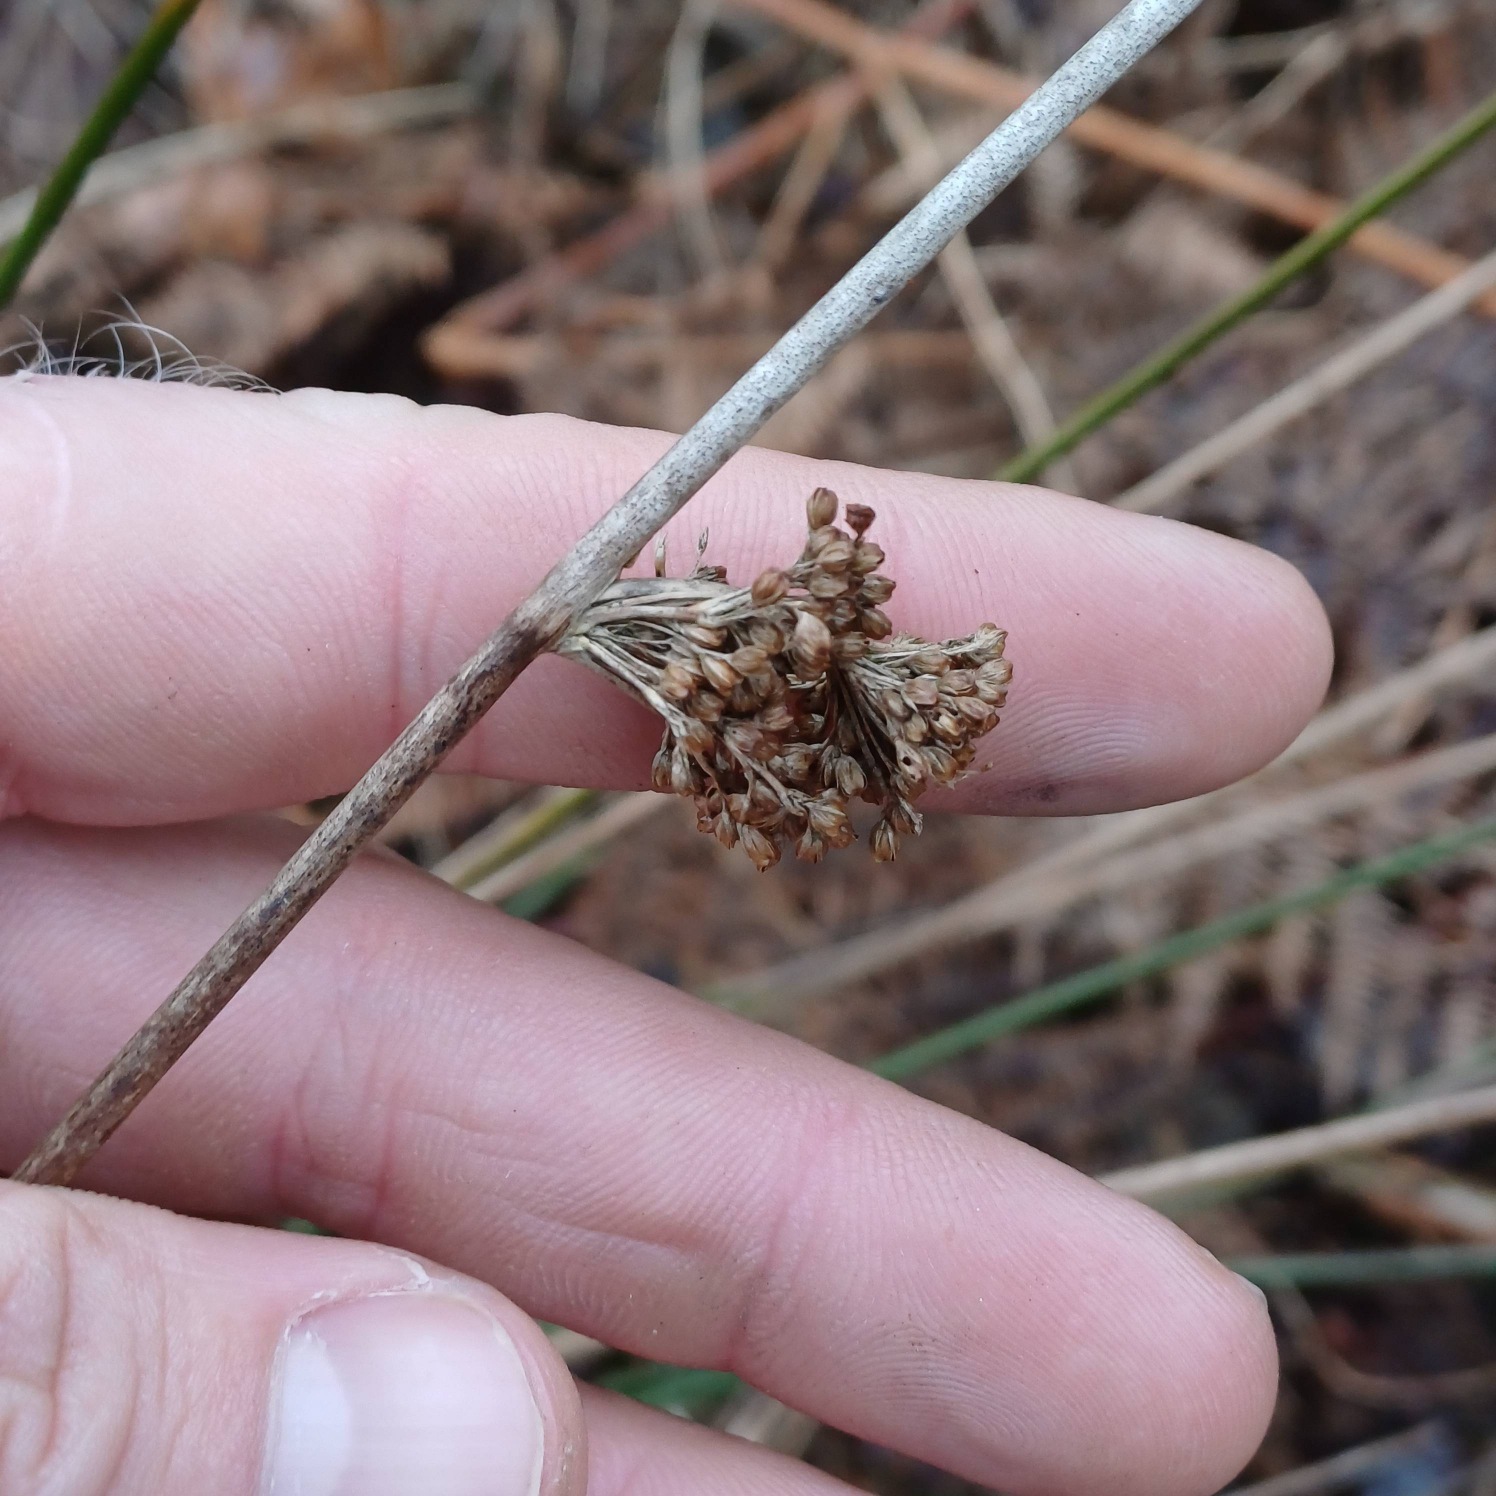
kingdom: Plantae
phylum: Tracheophyta
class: Liliopsida
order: Poales
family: Juncaceae
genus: Juncus
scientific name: Juncus effusus
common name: Lyse-siv
